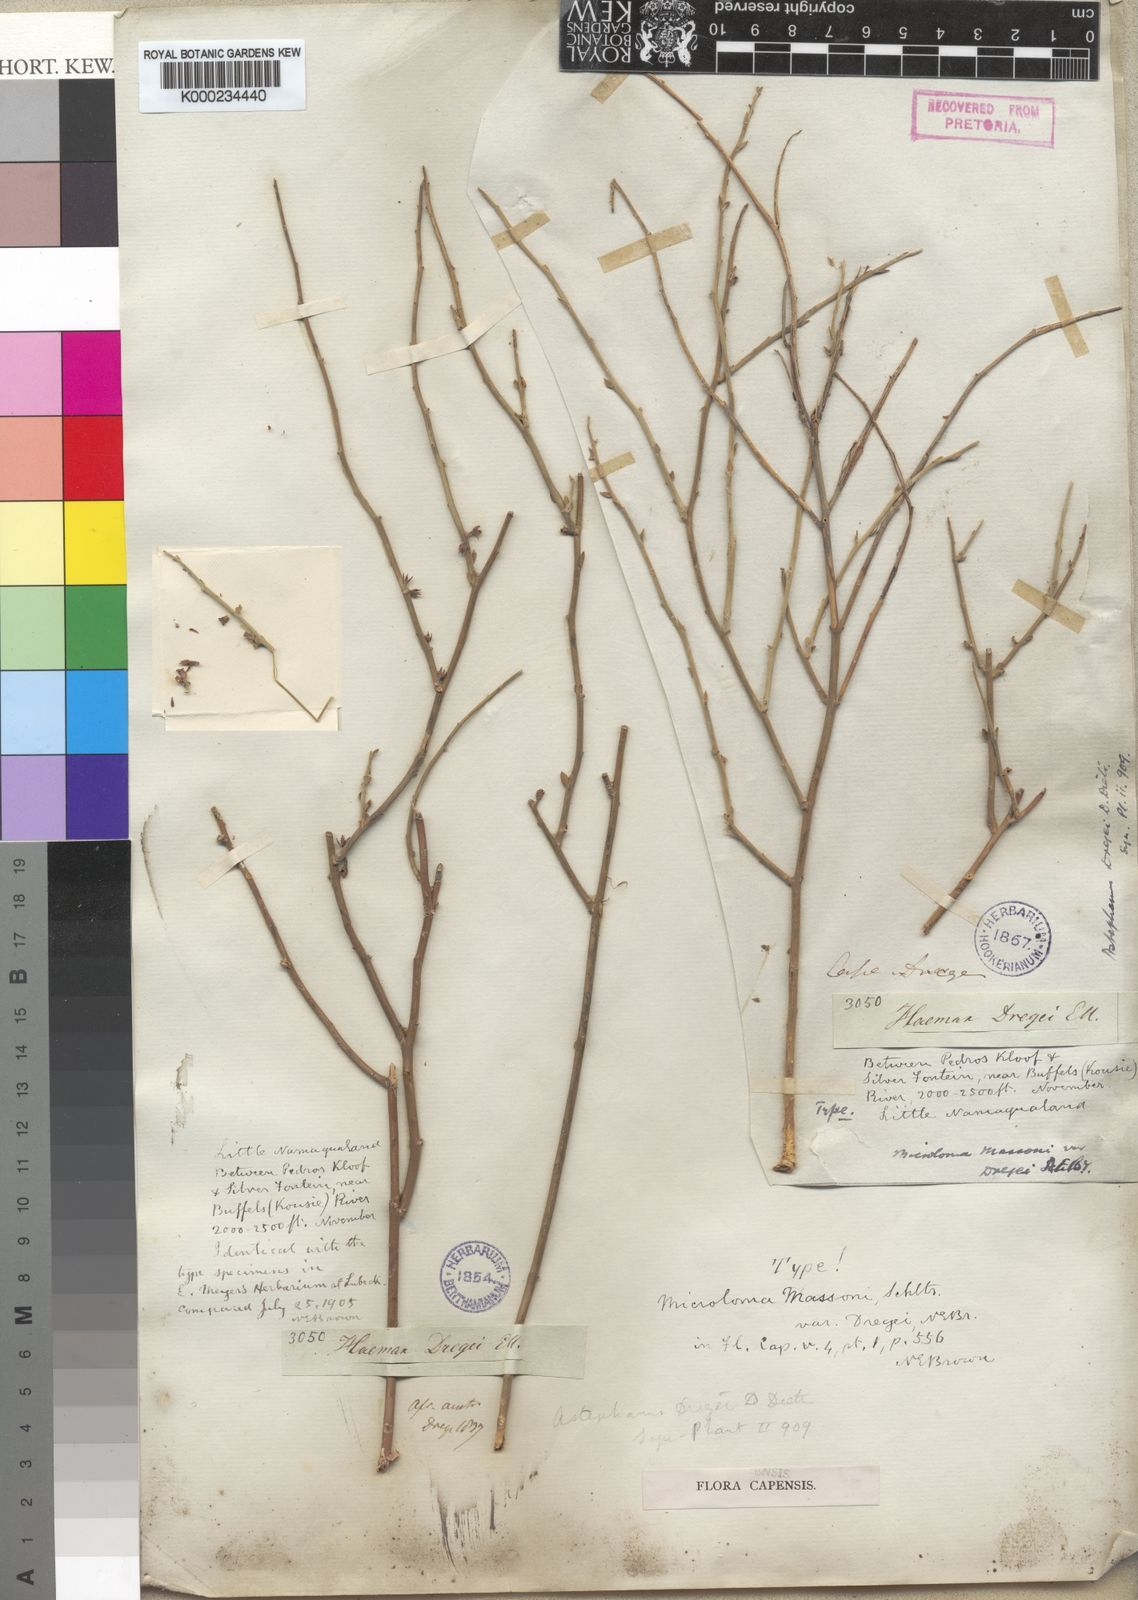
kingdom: Plantae
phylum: Tracheophyta
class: Magnoliopsida
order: Gentianales
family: Apocynaceae
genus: Microloma
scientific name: Microloma armatum
